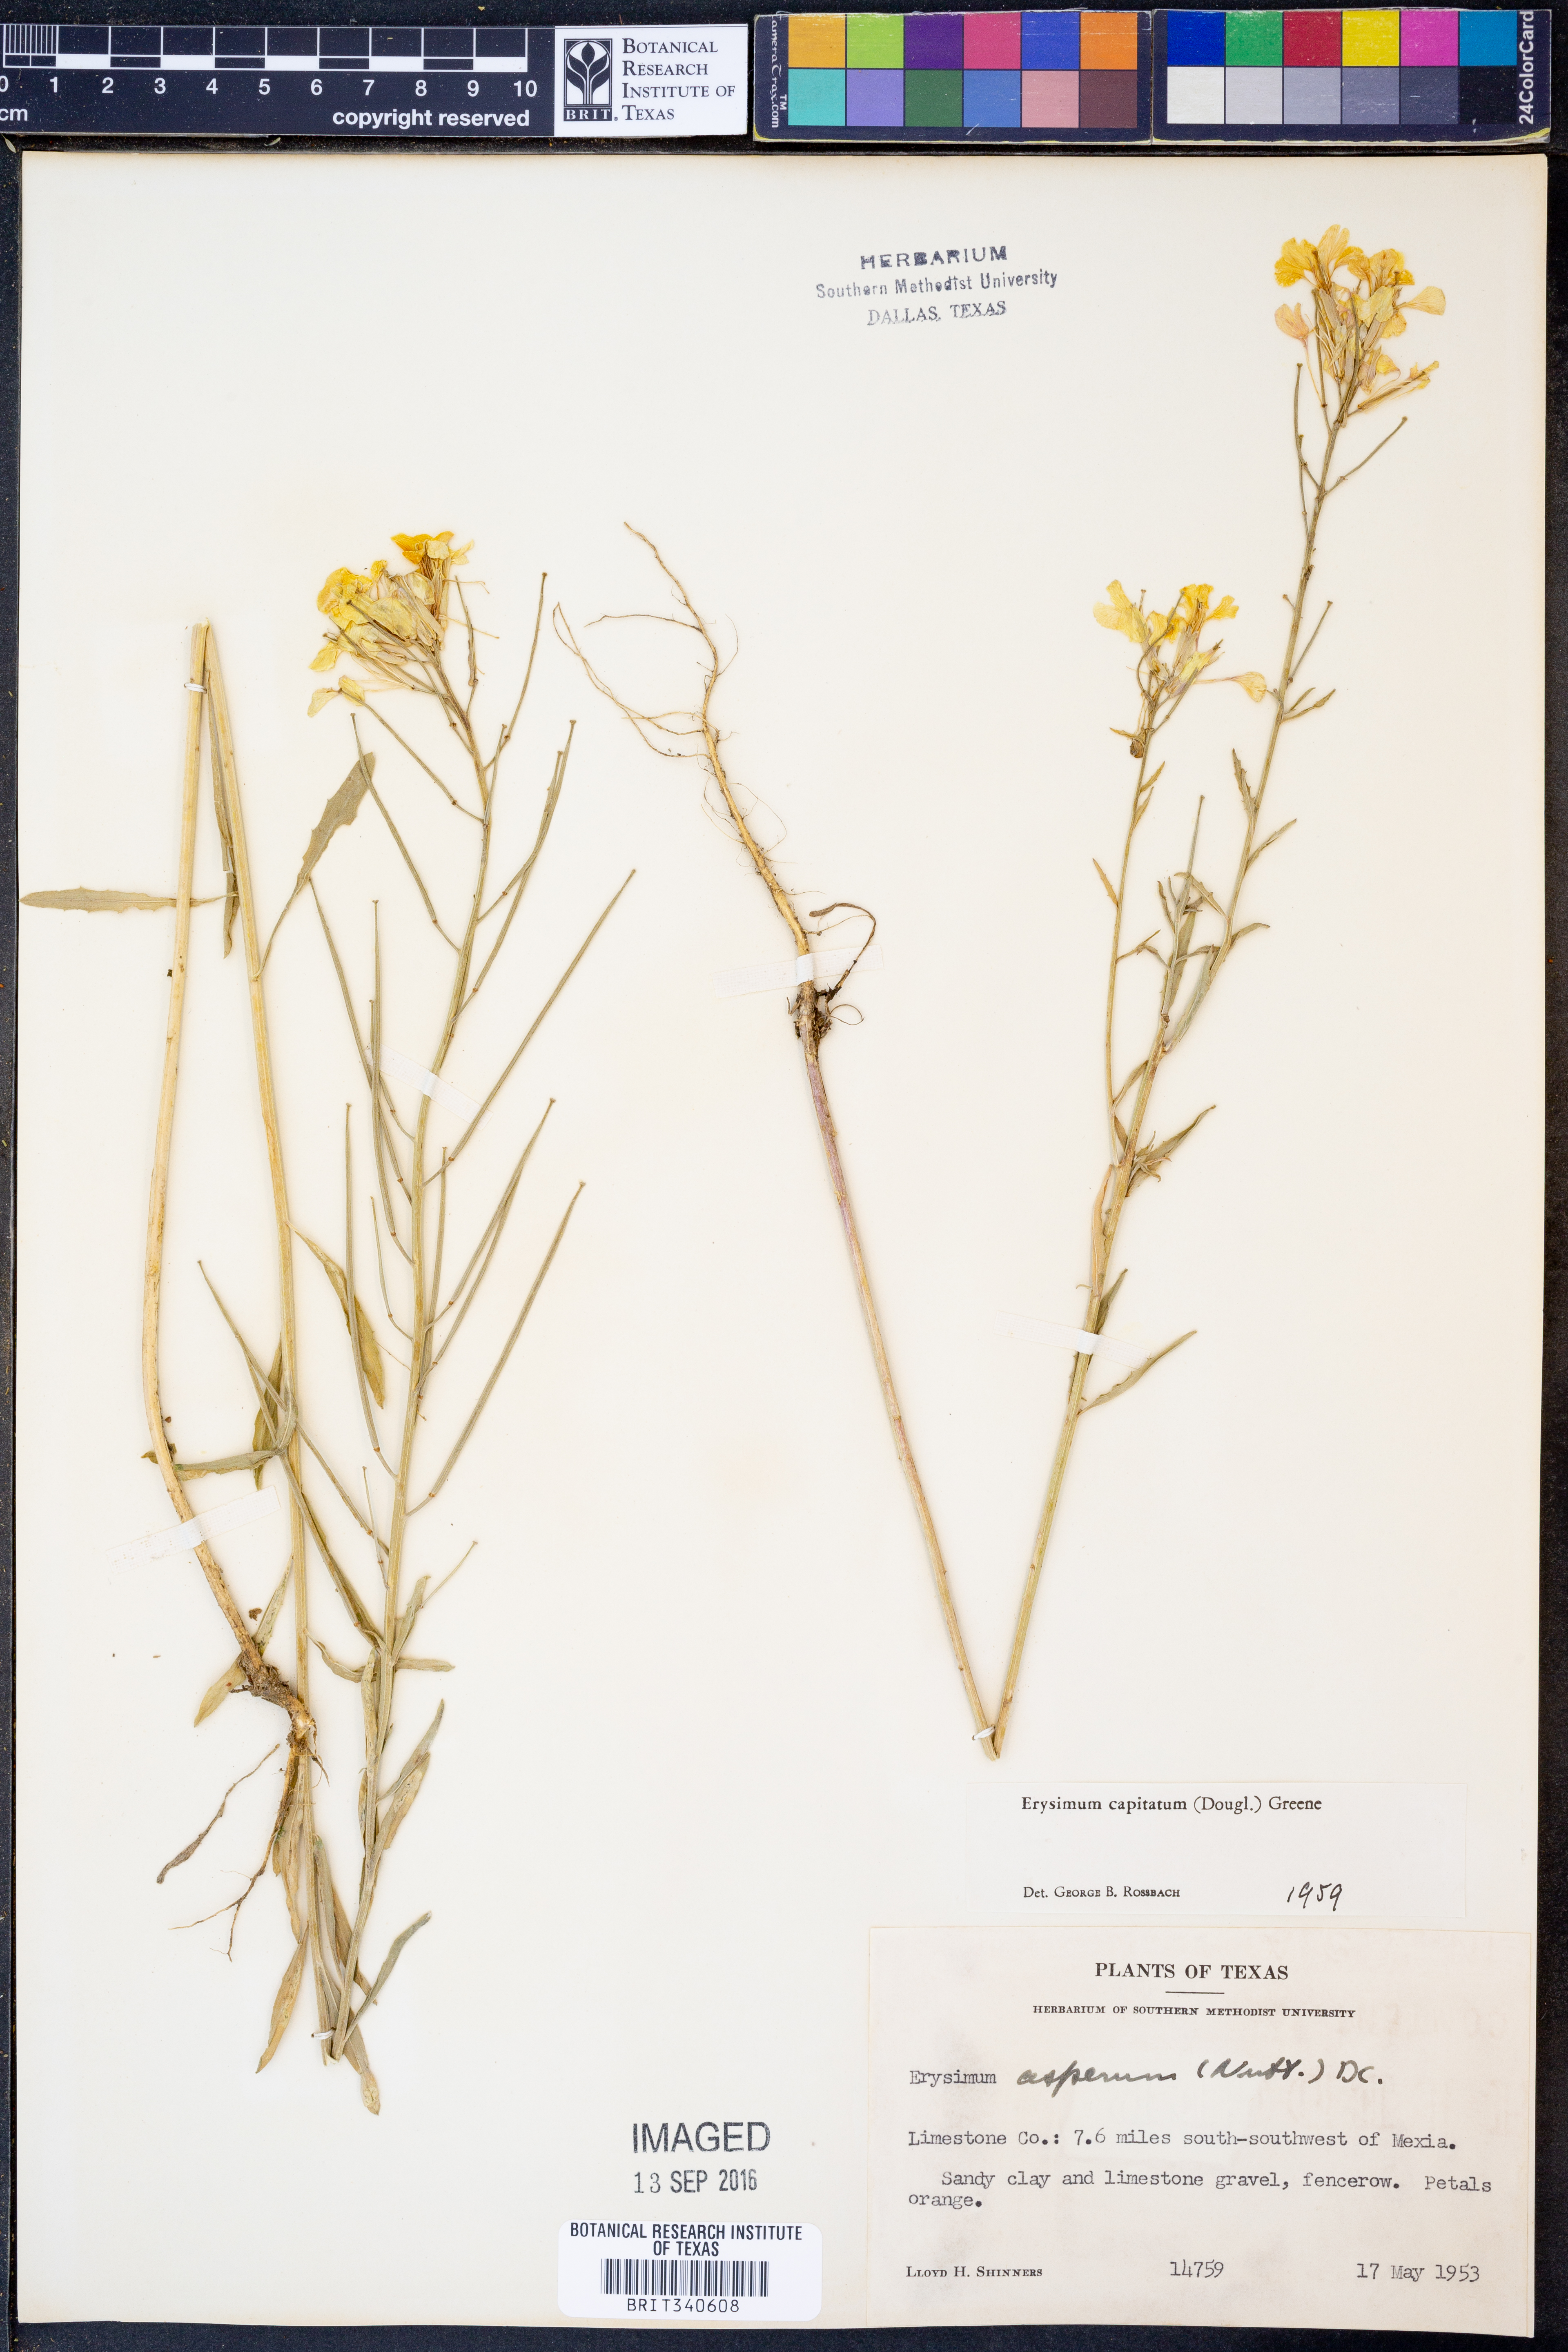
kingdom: Plantae
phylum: Tracheophyta
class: Magnoliopsida
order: Brassicales
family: Brassicaceae
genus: Erysimum
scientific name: Erysimum capitatum
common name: Western wallflower
